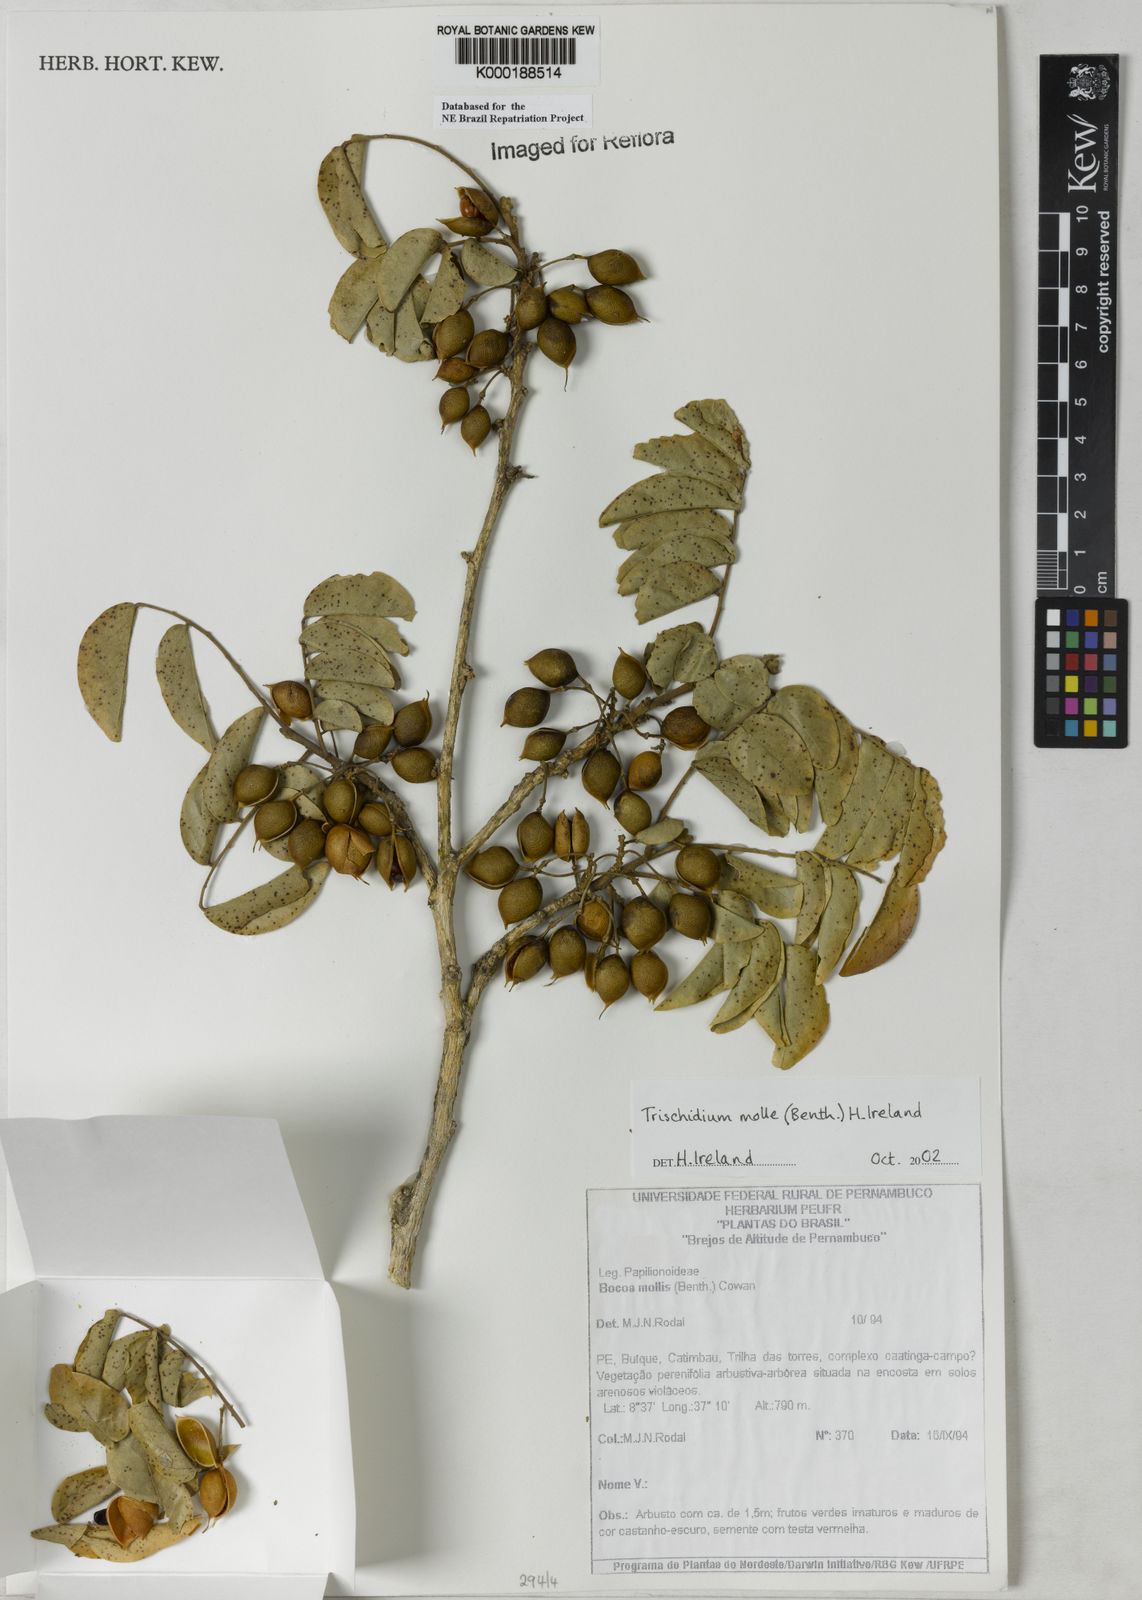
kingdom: Plantae
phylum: Tracheophyta
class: Magnoliopsida
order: Fabales
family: Fabaceae
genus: Trischidium
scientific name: Trischidium
